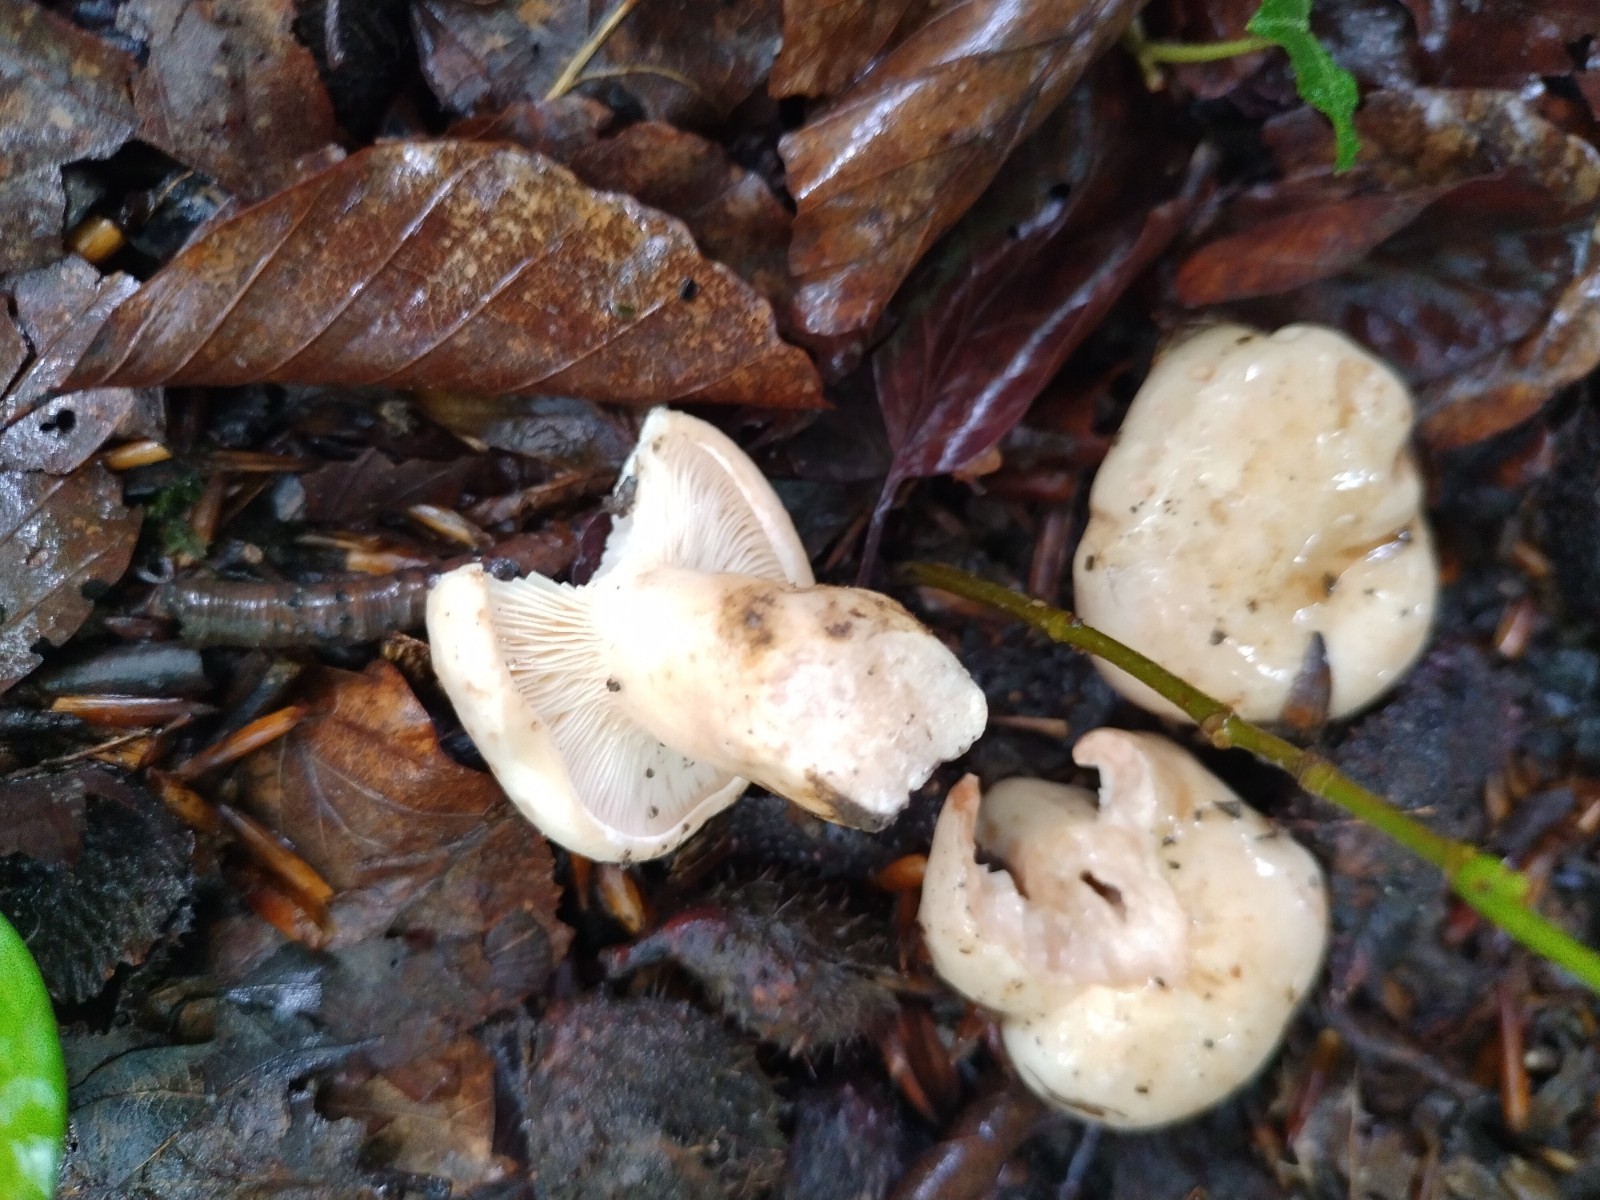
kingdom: Fungi
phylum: Basidiomycota
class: Agaricomycetes
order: Russulales
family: Russulaceae
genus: Lactarius
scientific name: Lactarius pallidus
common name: bleg mælkehat
